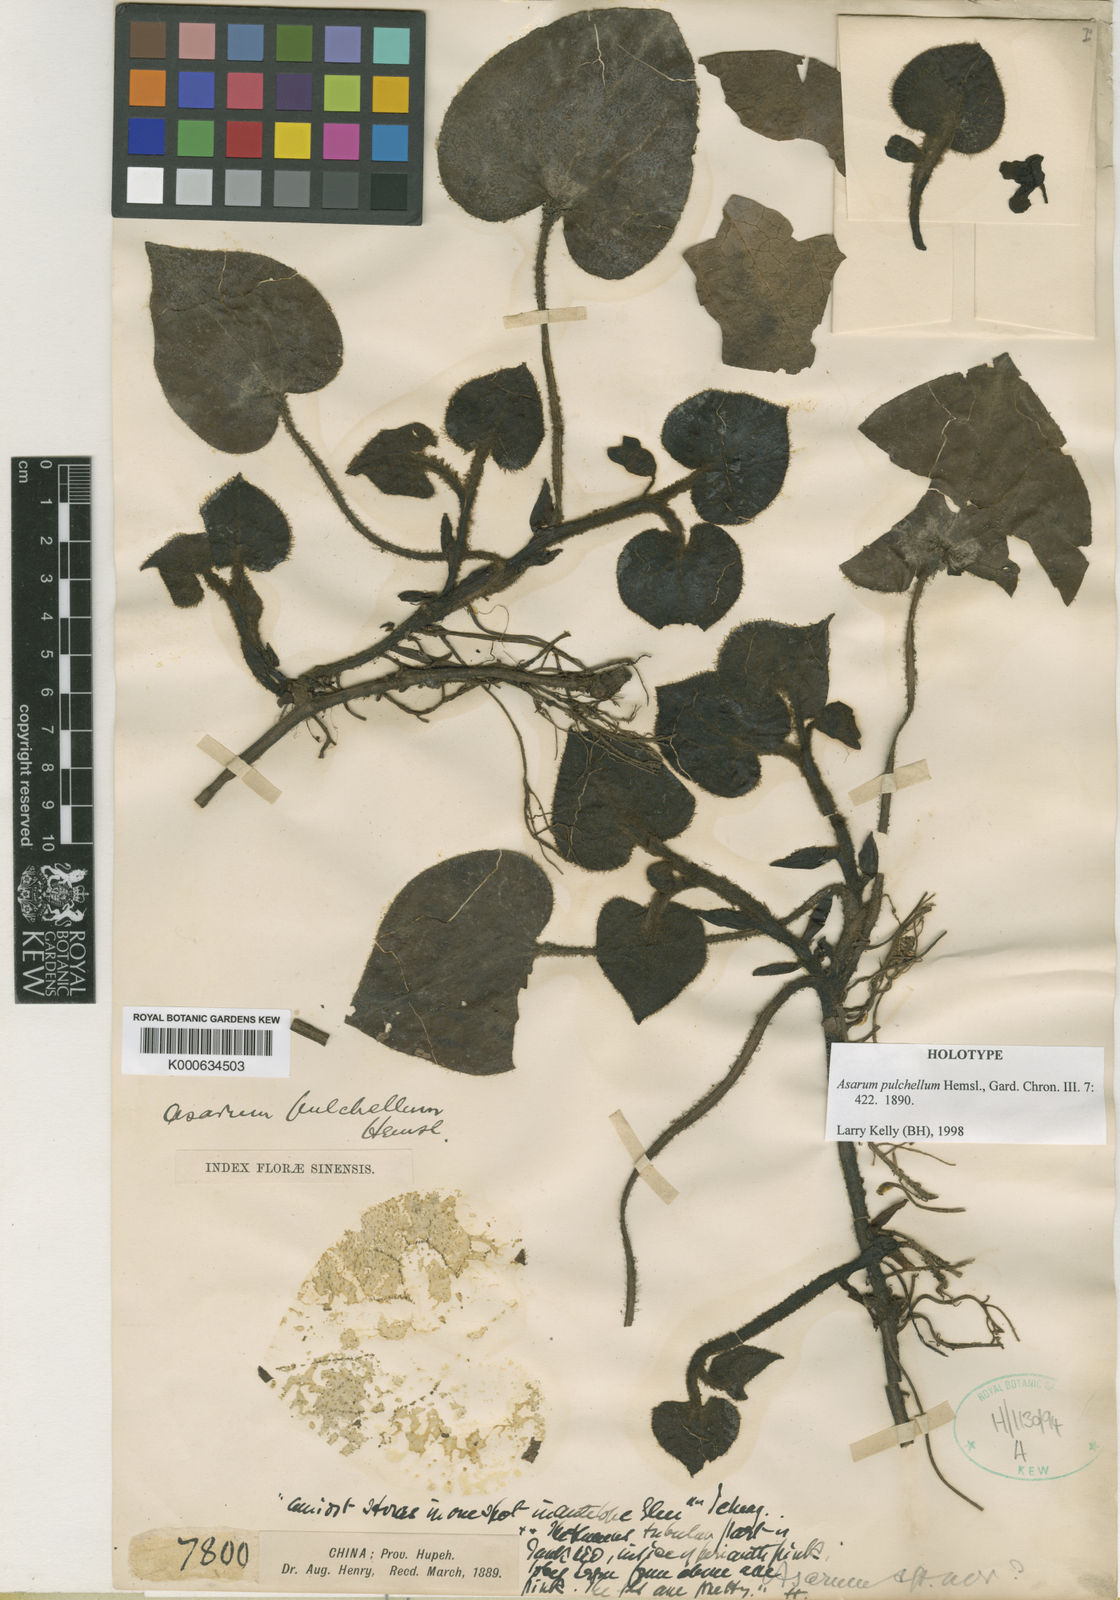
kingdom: Plantae
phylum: Tracheophyta
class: Magnoliopsida
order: Piperales
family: Aristolochiaceae
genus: Asarum
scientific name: Asarum pulchellum
